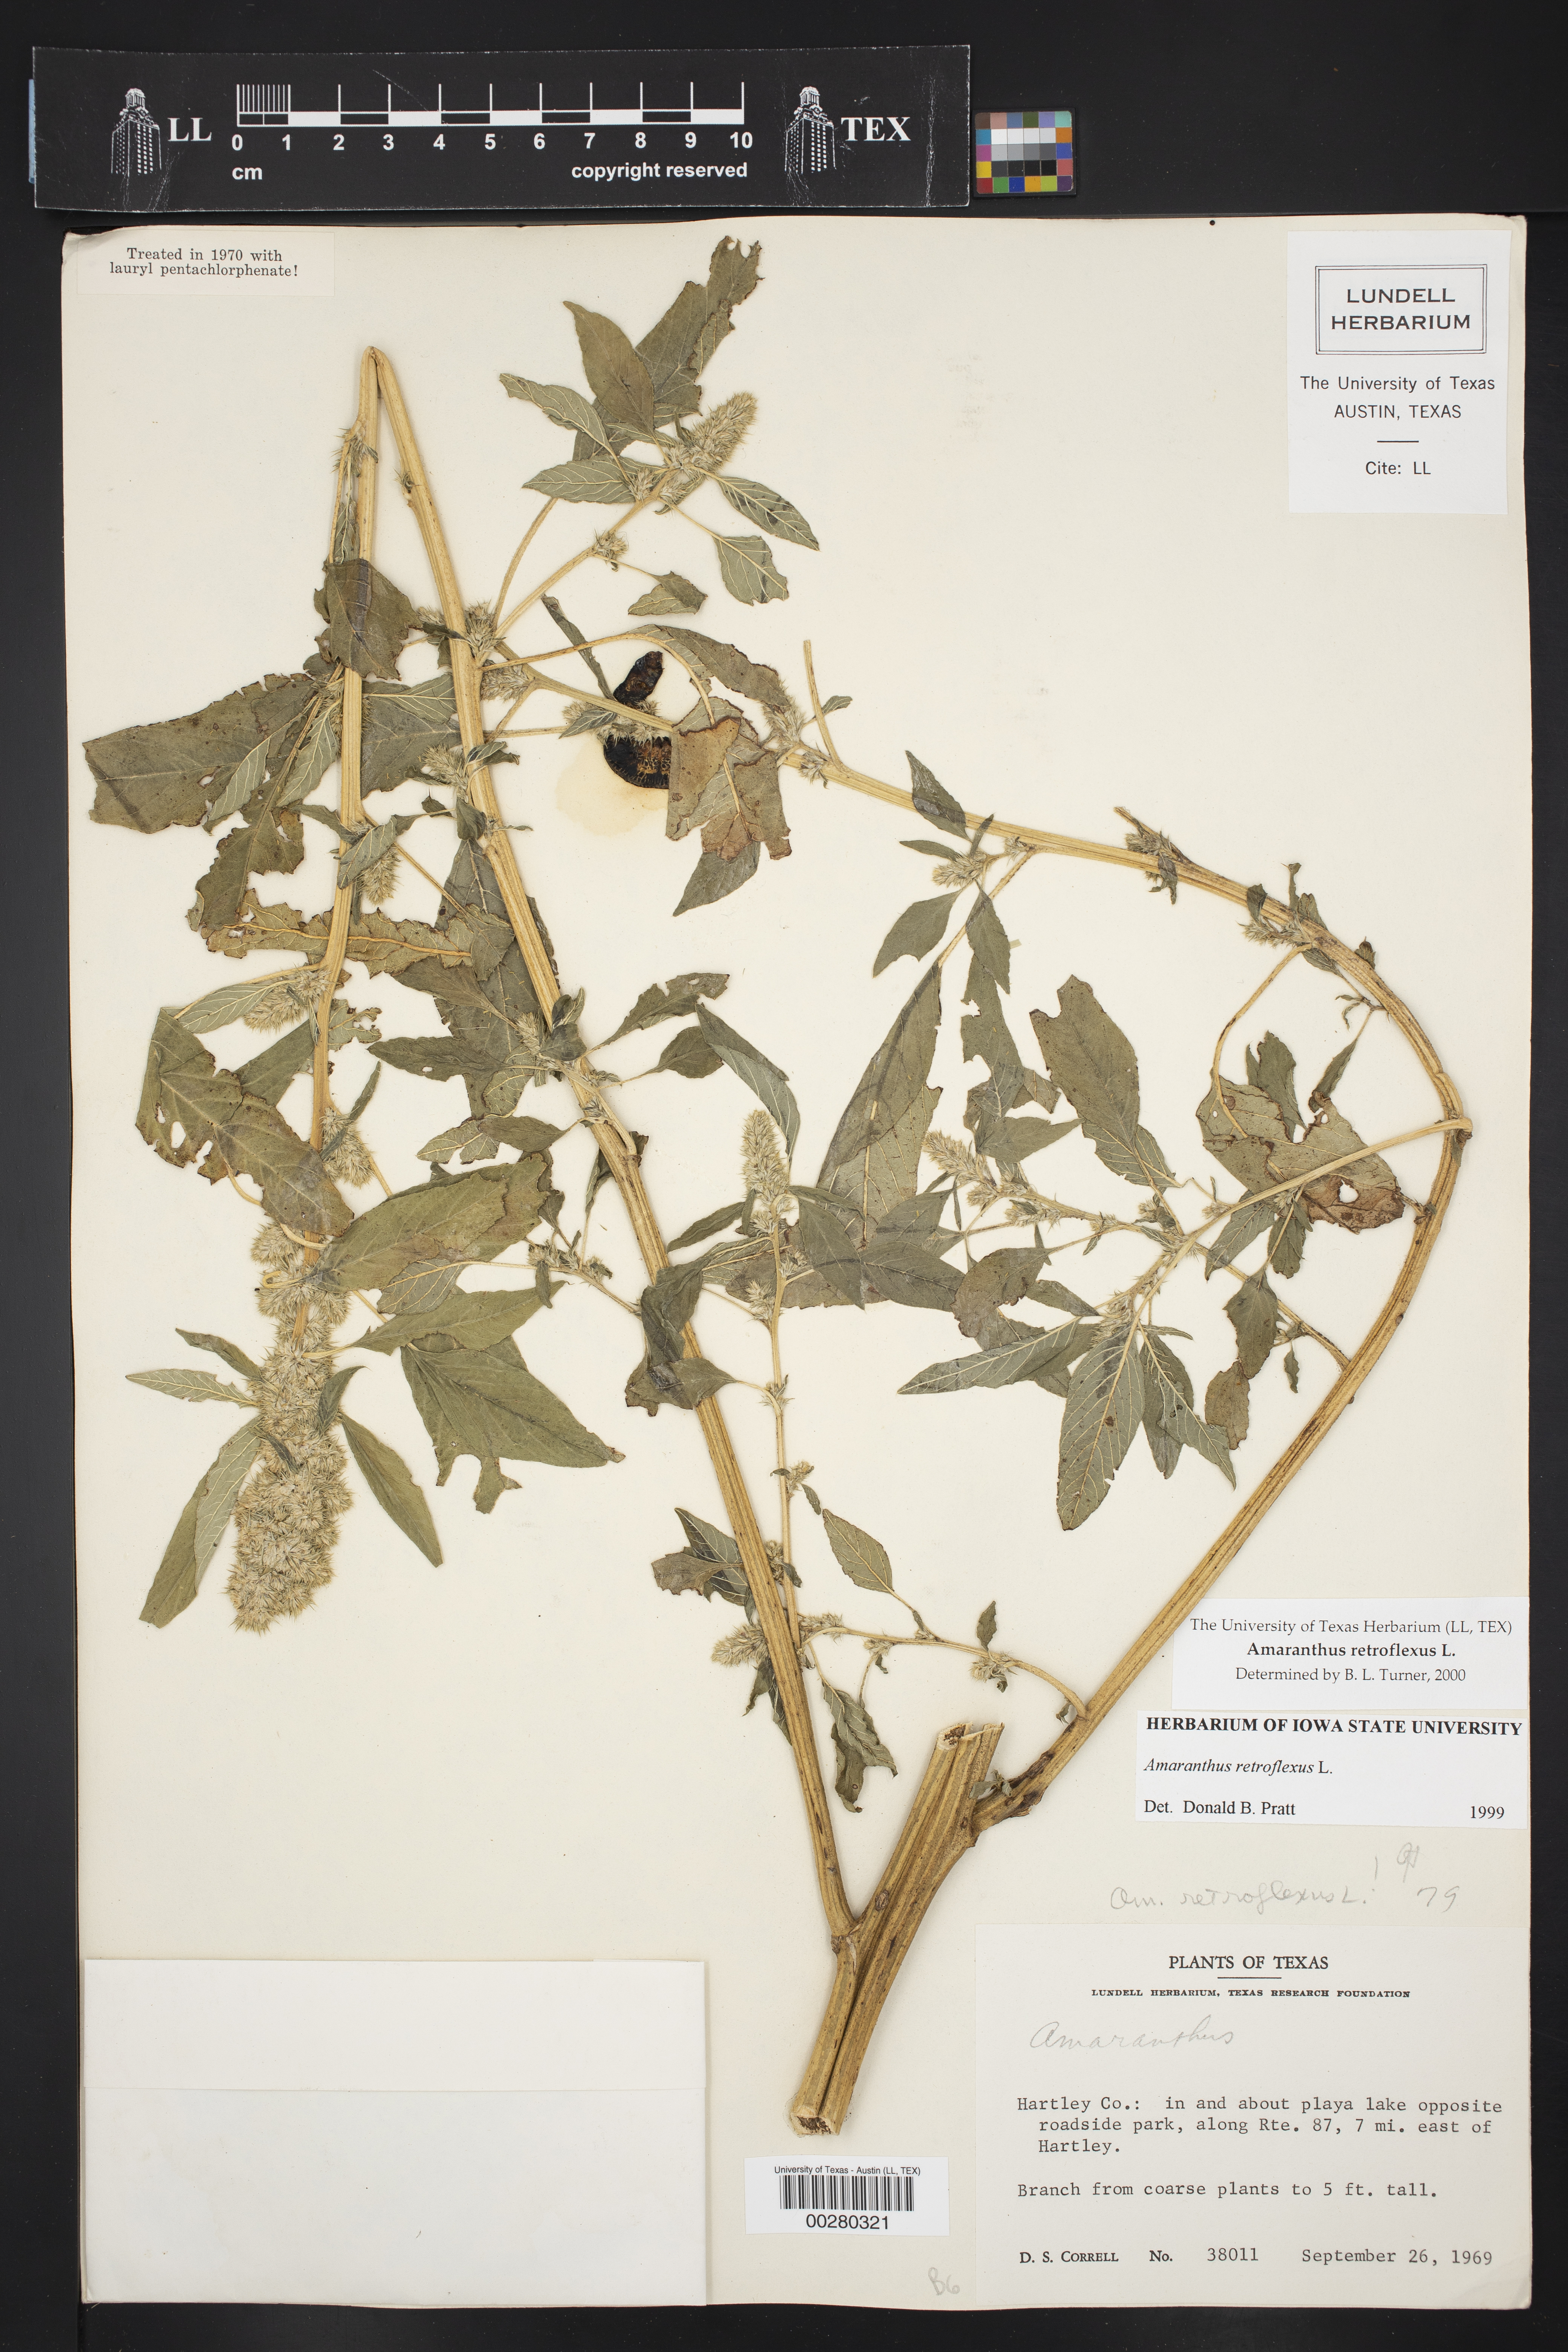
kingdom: Plantae
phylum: Tracheophyta
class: Magnoliopsida
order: Caryophyllales
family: Amaranthaceae
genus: Amaranthus
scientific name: Amaranthus retroflexus
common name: Redroot amaranth
